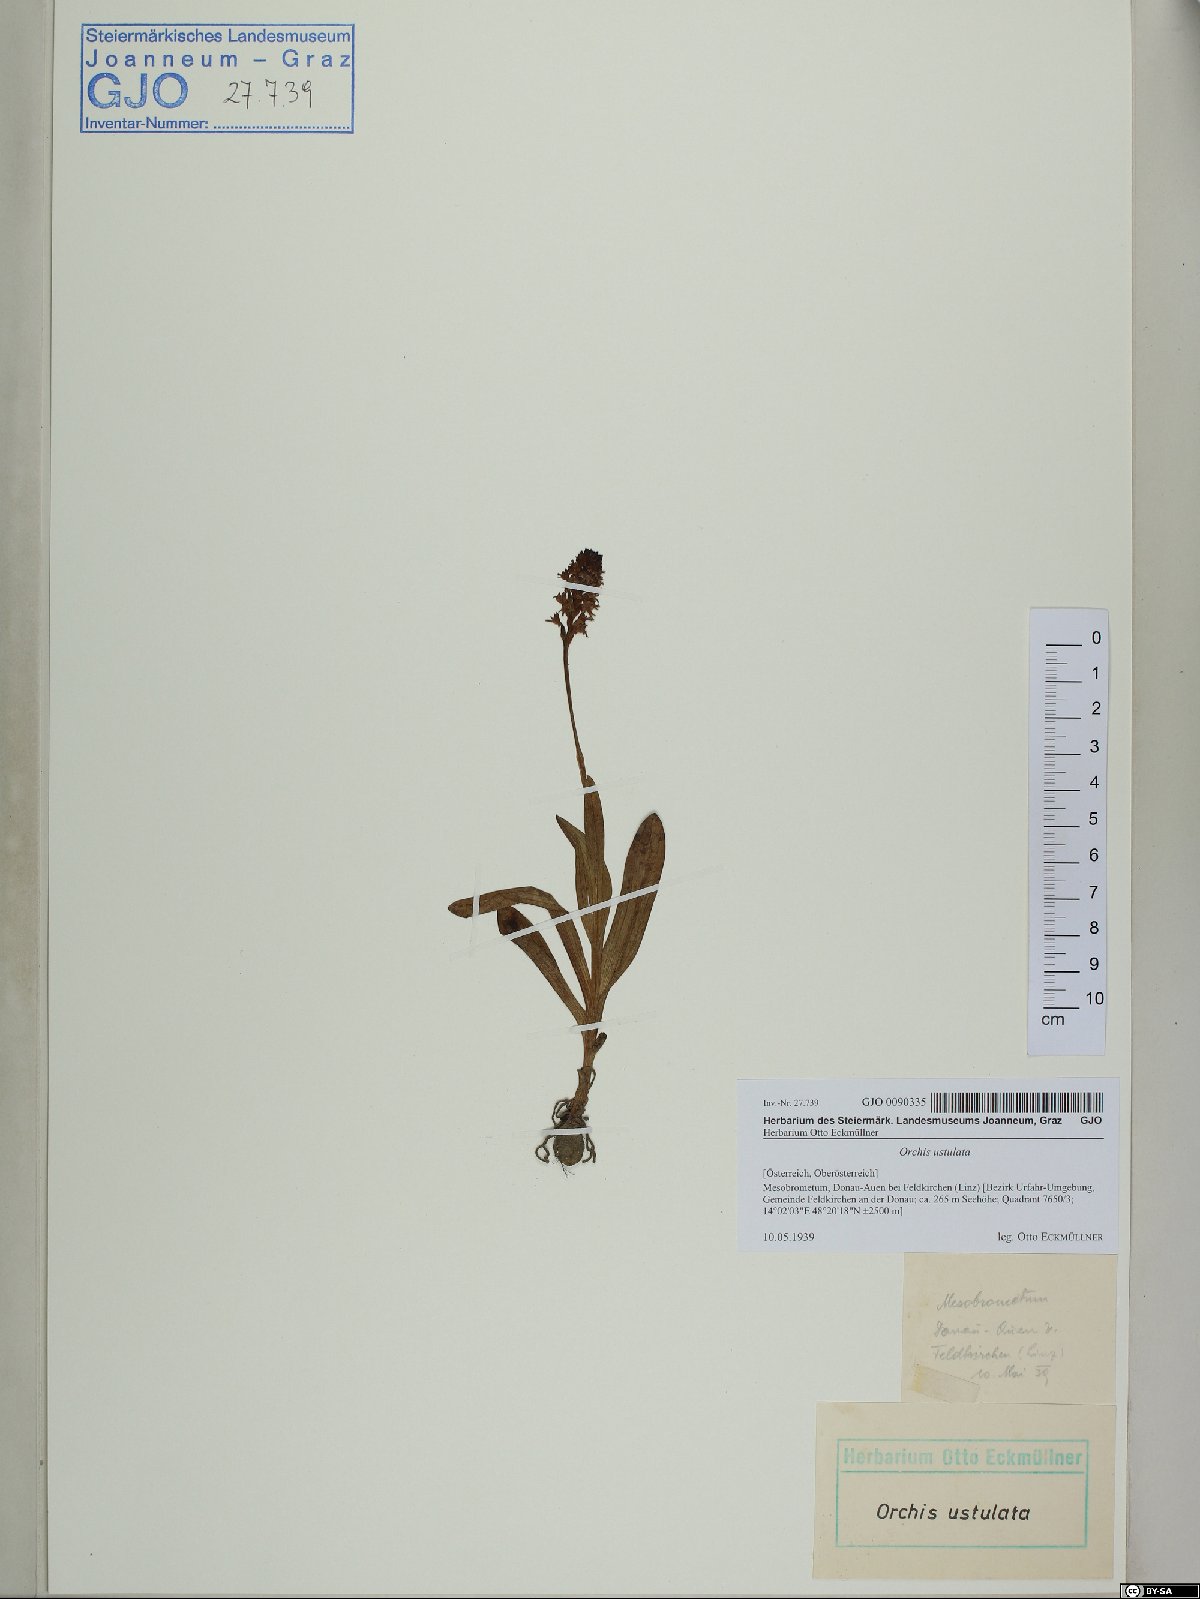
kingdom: Plantae
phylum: Tracheophyta
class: Liliopsida
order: Asparagales
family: Orchidaceae
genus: Neotinea
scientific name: Neotinea ustulata
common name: Burnt orchid
